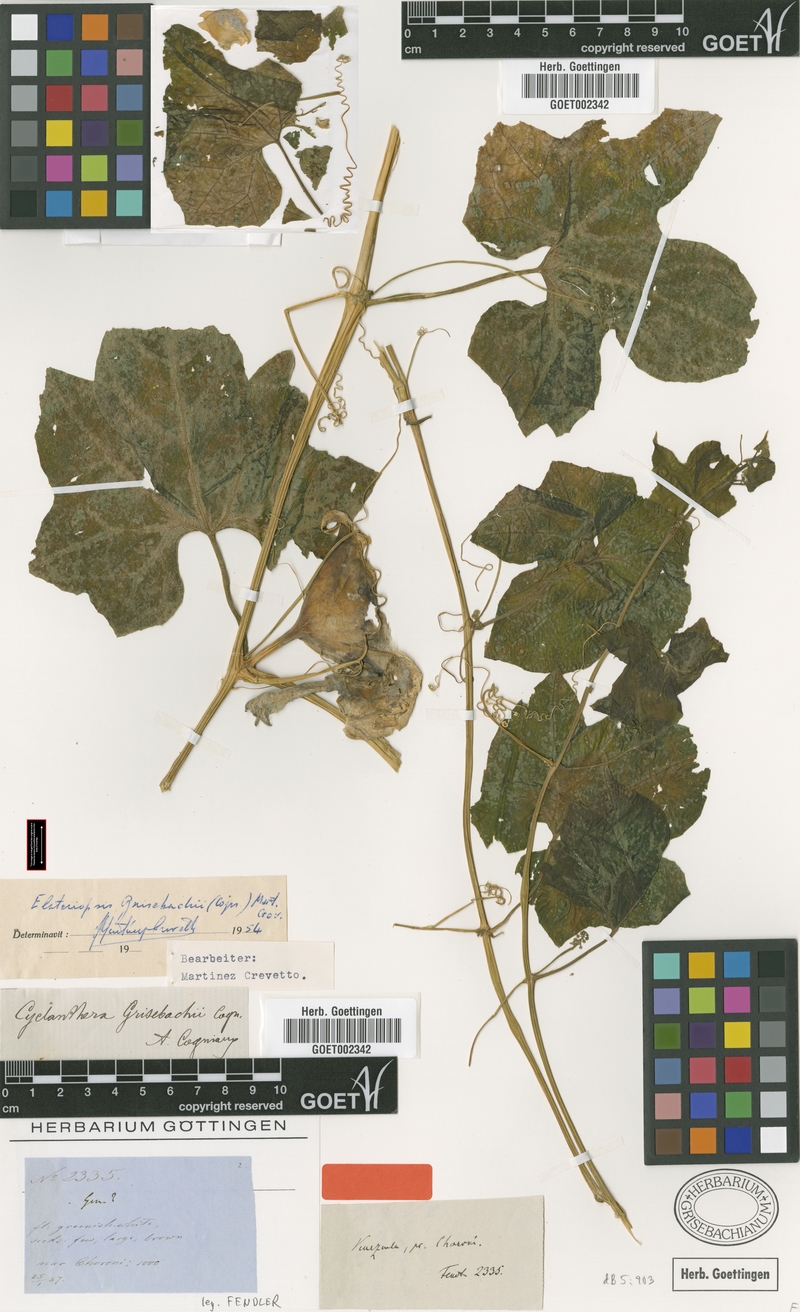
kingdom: Plantae
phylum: Tracheophyta
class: Magnoliopsida
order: Cucurbitales
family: Cucurbitaceae
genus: Hanburia
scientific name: Hanburia grisebachii
